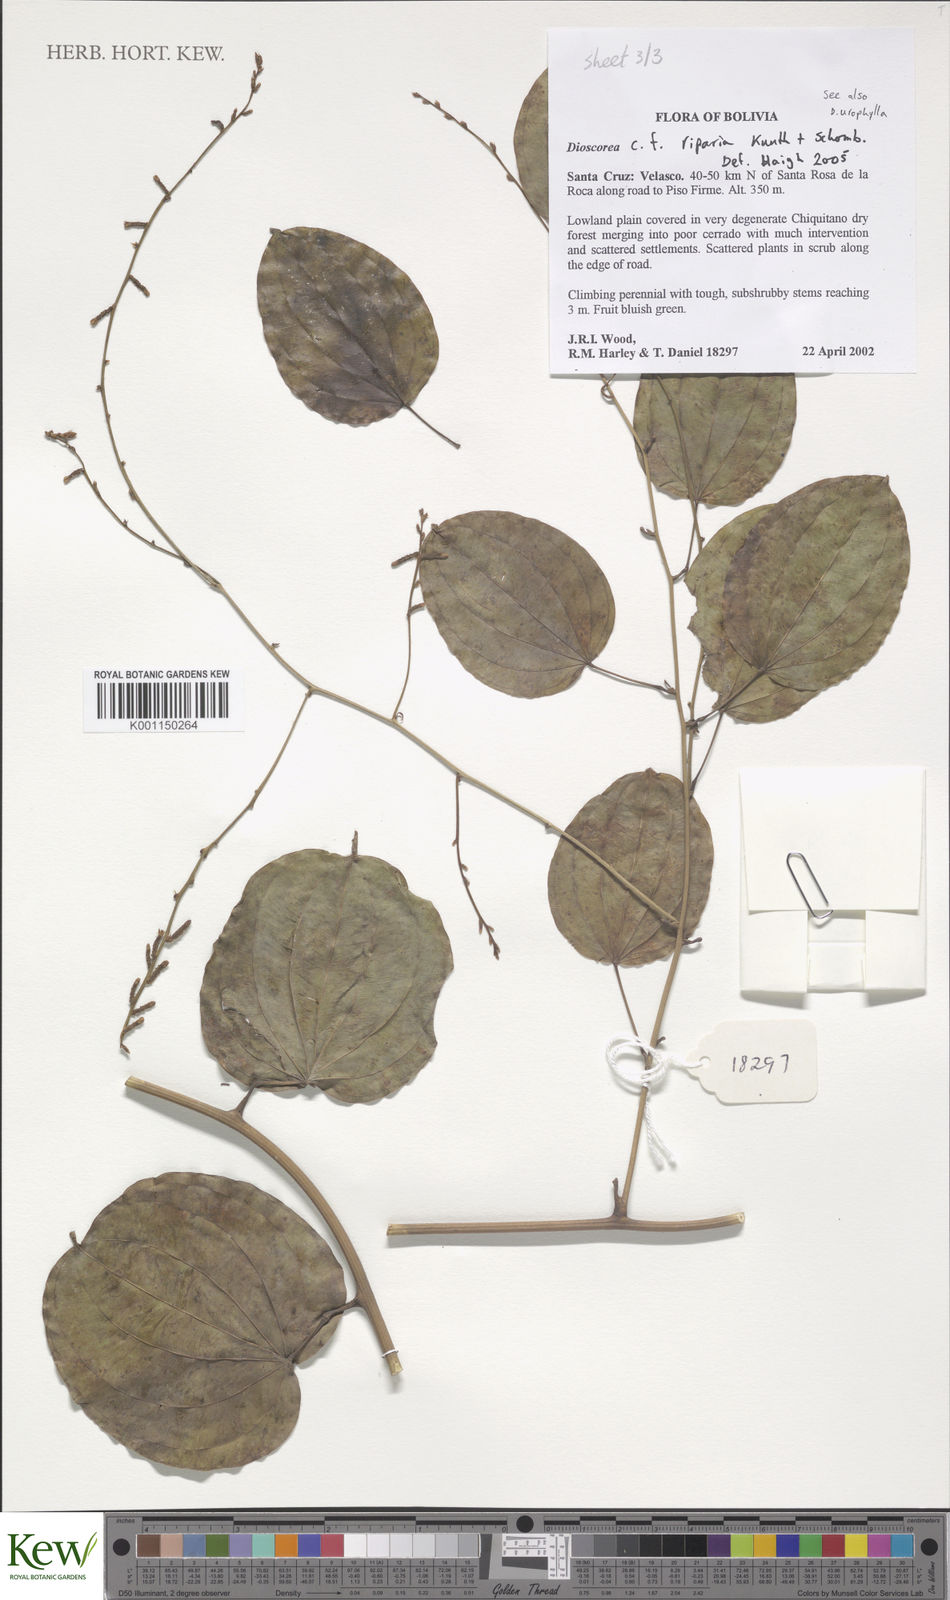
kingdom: Plantae
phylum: Tracheophyta
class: Liliopsida
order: Dioscoreales
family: Dioscoreaceae
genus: Dioscorea
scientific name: Dioscorea acanthogene
